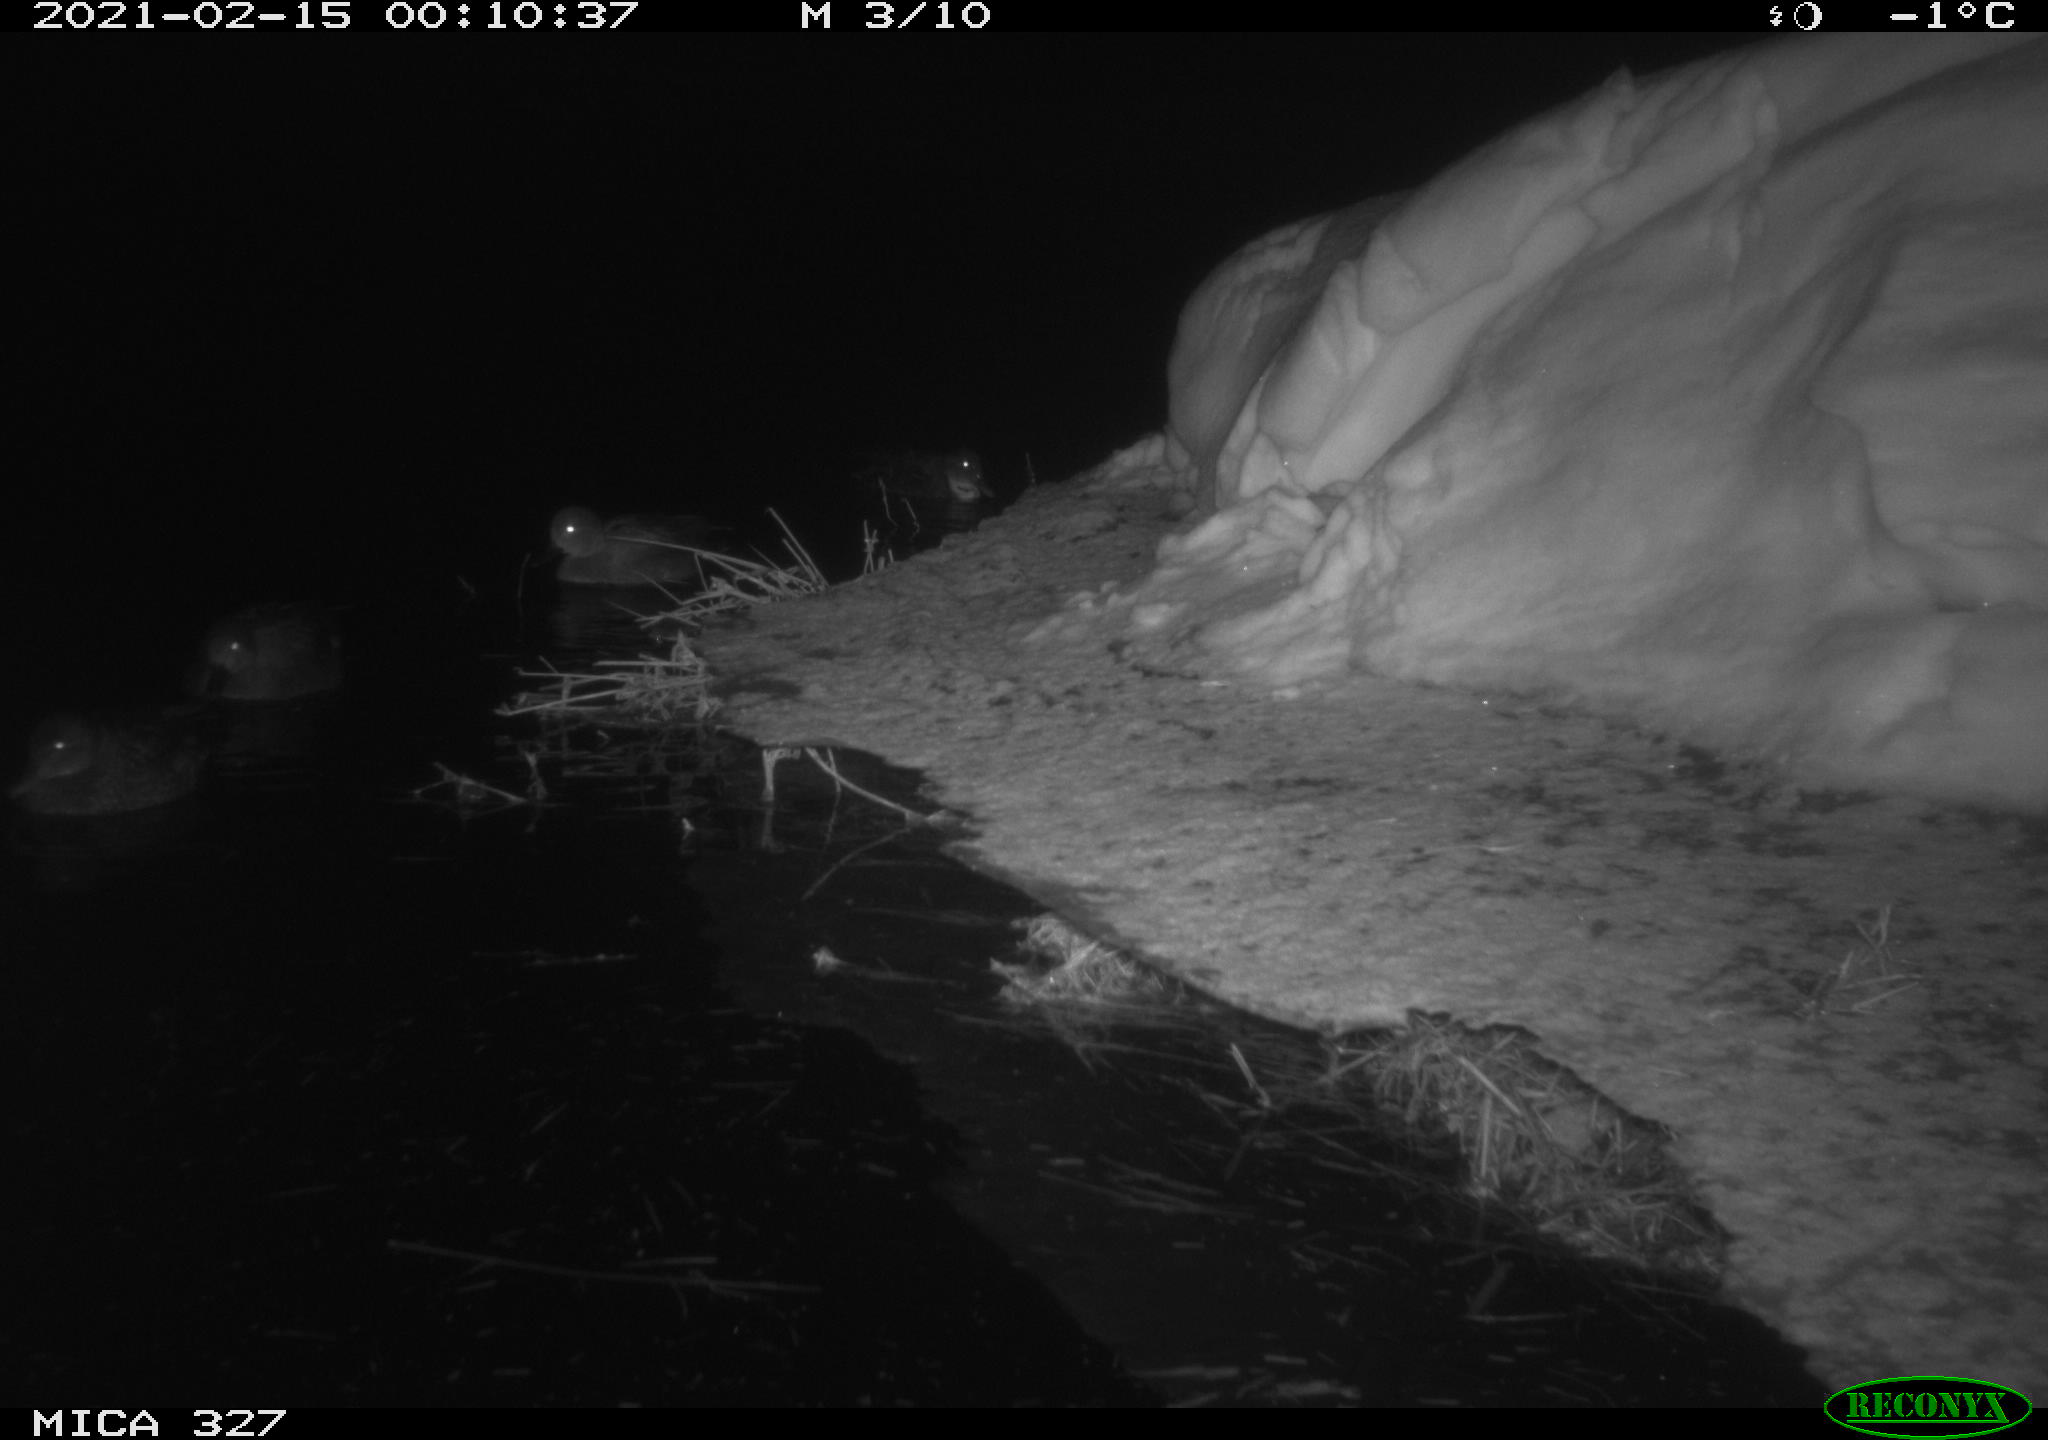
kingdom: Animalia
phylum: Chordata
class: Aves
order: Anseriformes
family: Anatidae
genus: Anas
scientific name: Anas
